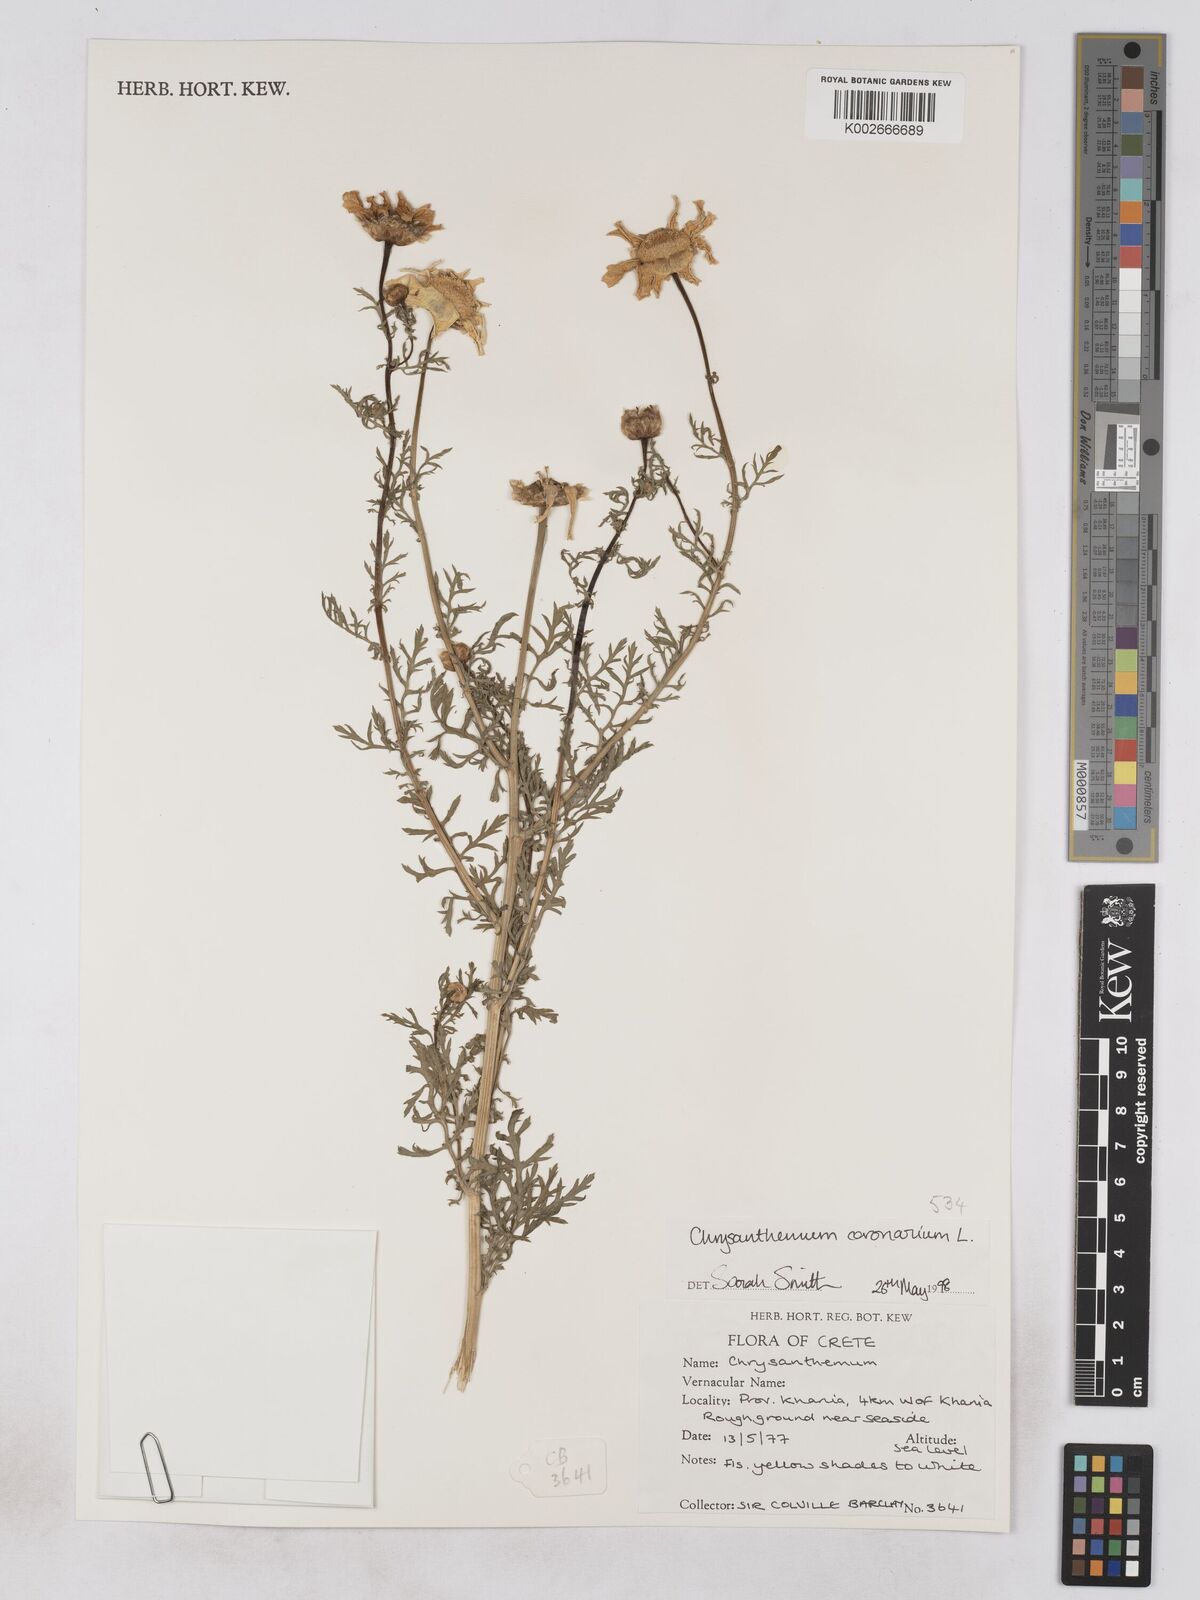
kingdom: Plantae
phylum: Tracheophyta
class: Magnoliopsida
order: Asterales
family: Asteraceae
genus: Glebionis
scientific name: Glebionis coronaria
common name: Crowndaisy
